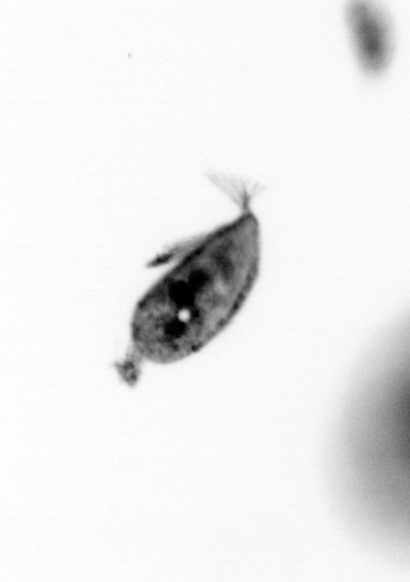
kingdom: Animalia
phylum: Arthropoda
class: Maxillopoda
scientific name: Maxillopoda
